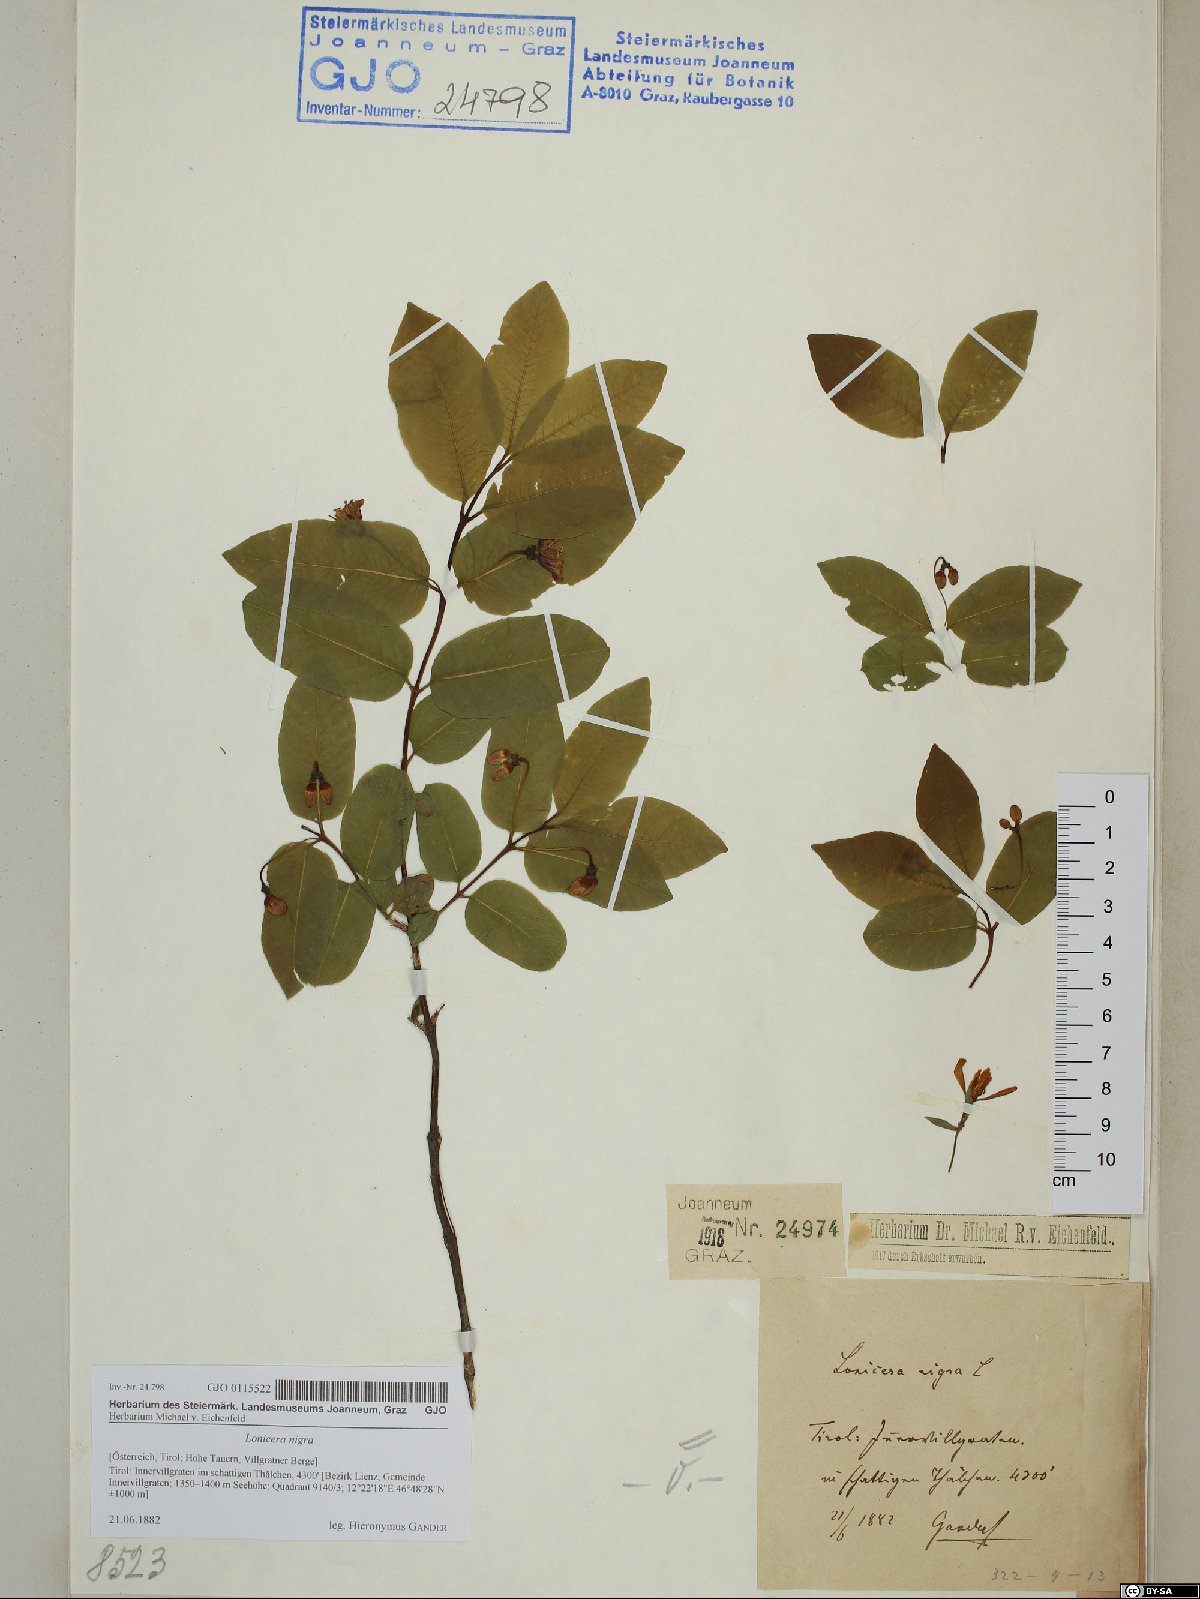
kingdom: Plantae
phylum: Tracheophyta
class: Magnoliopsida
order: Dipsacales
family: Caprifoliaceae
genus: Lonicera
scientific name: Lonicera nigra
